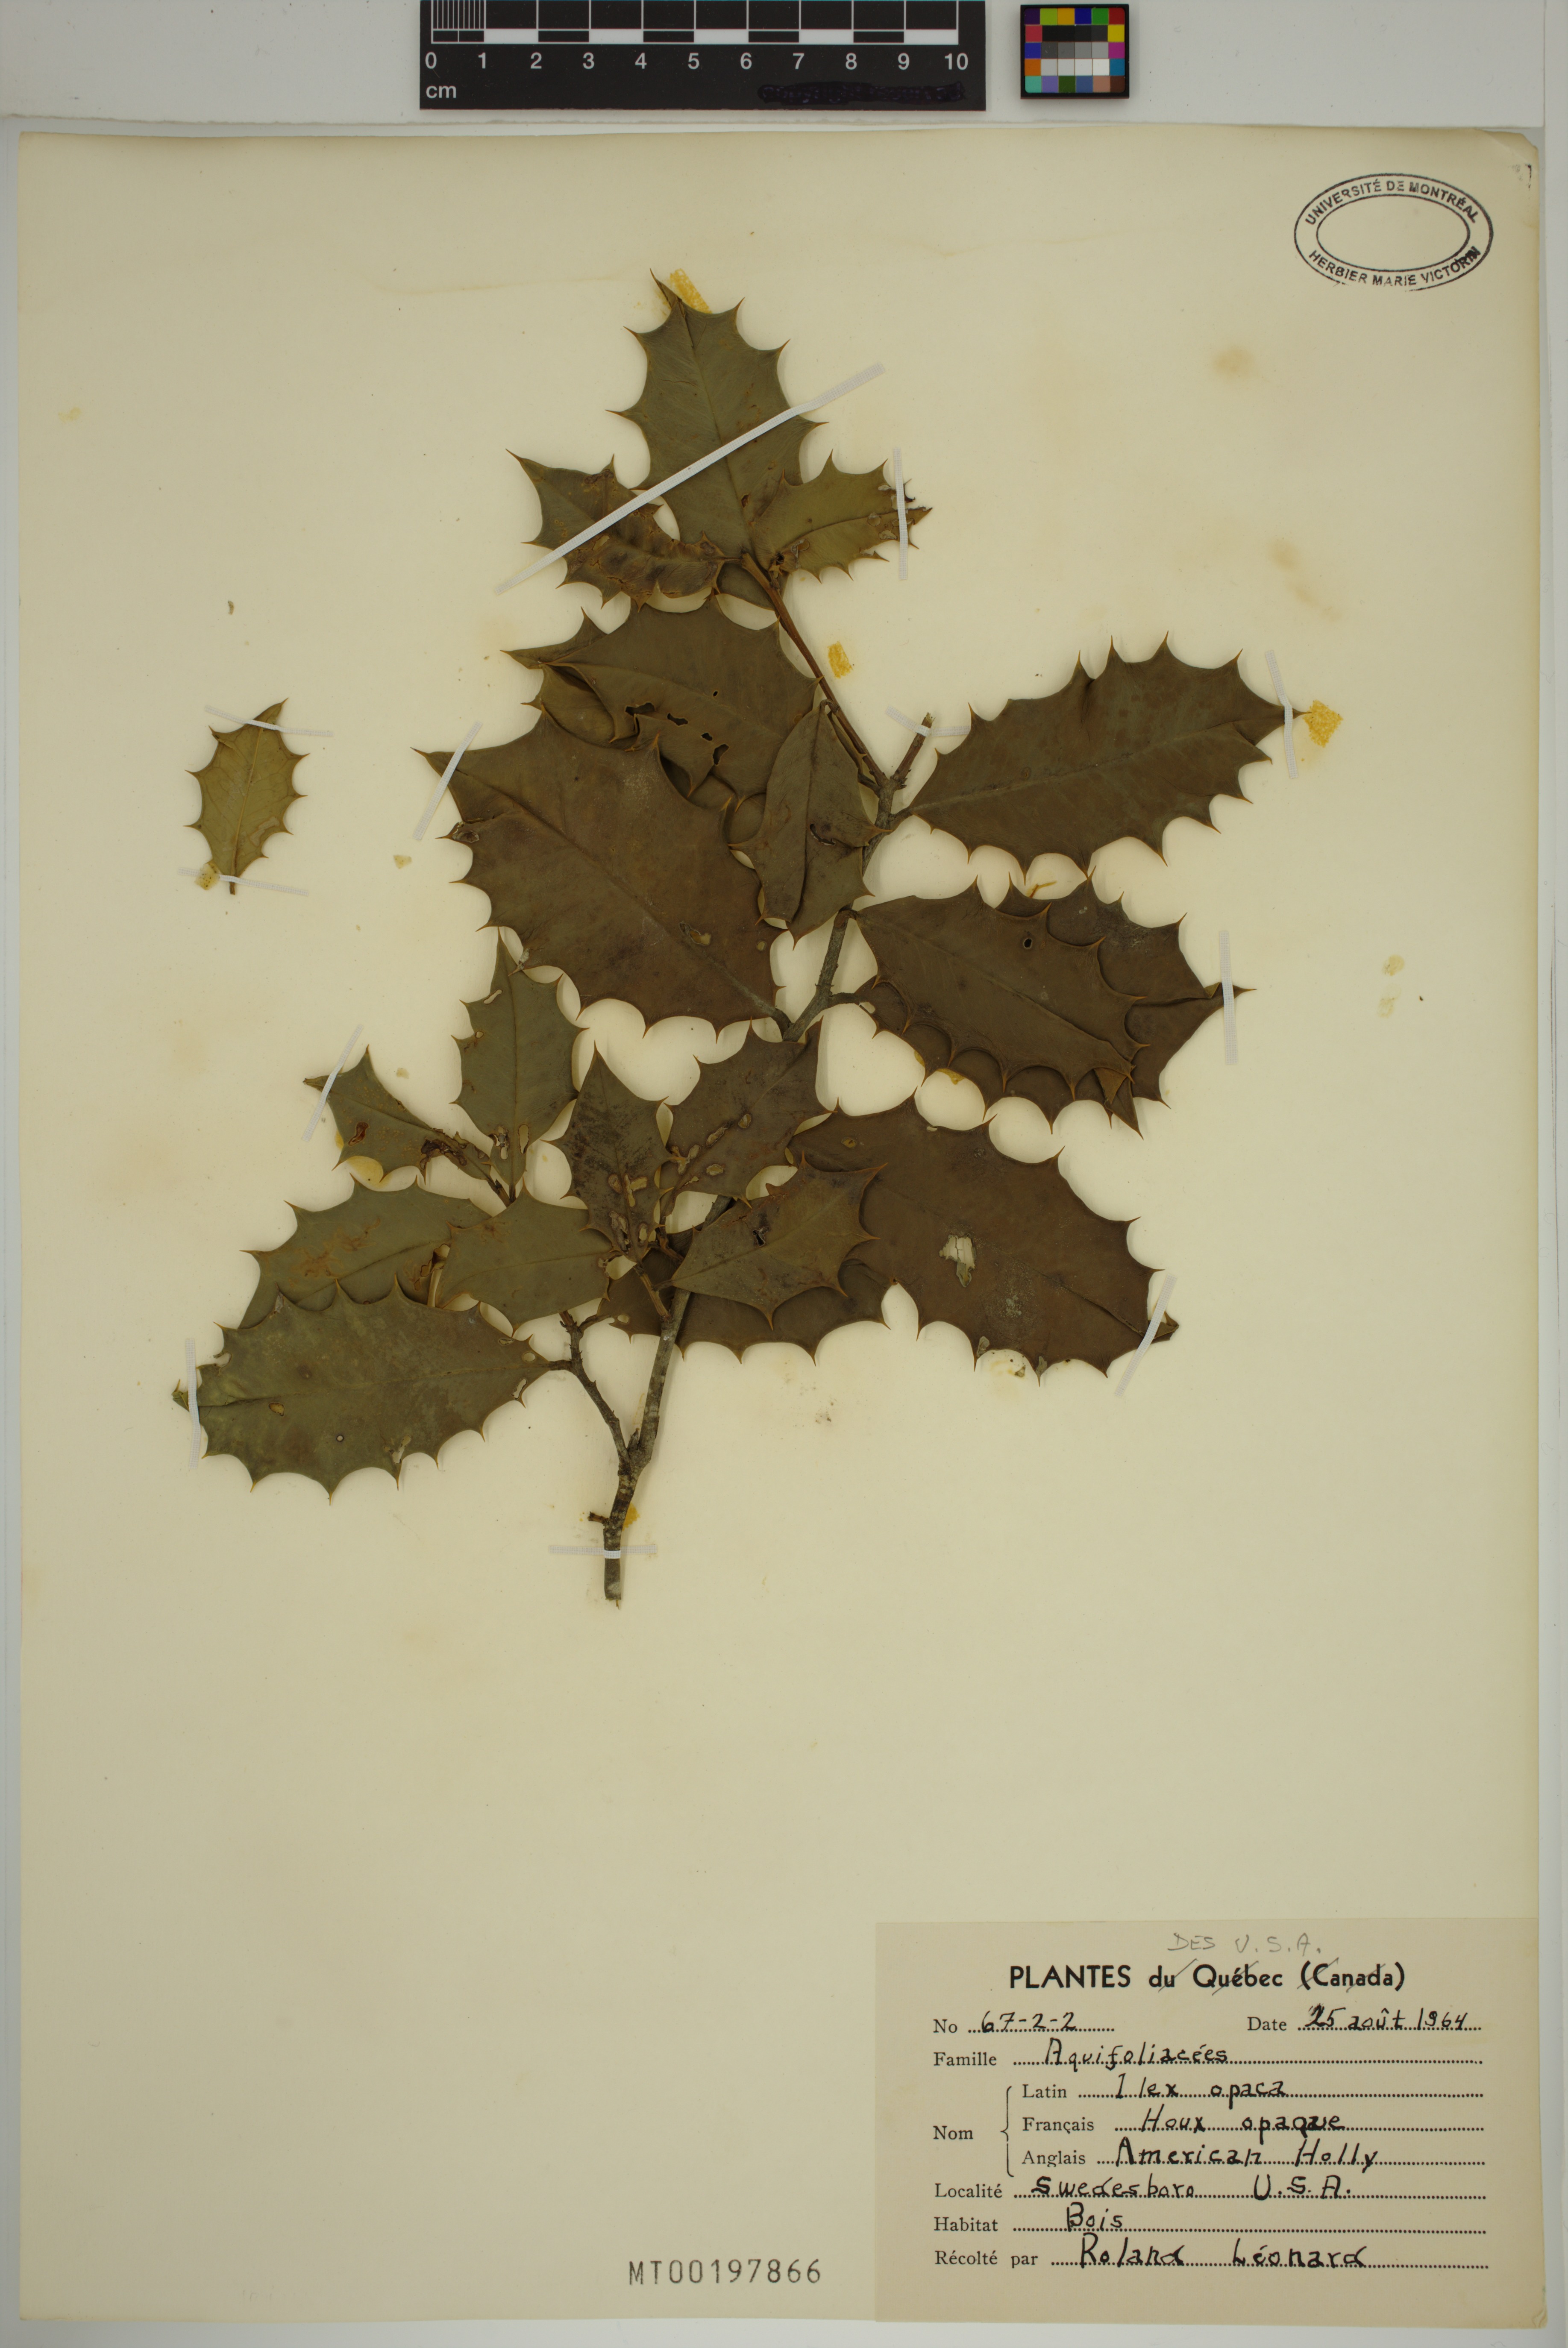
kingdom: Plantae
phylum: Tracheophyta
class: Magnoliopsida
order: Aquifoliales
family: Aquifoliaceae
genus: Ilex
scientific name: Ilex opaca
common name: American holly
